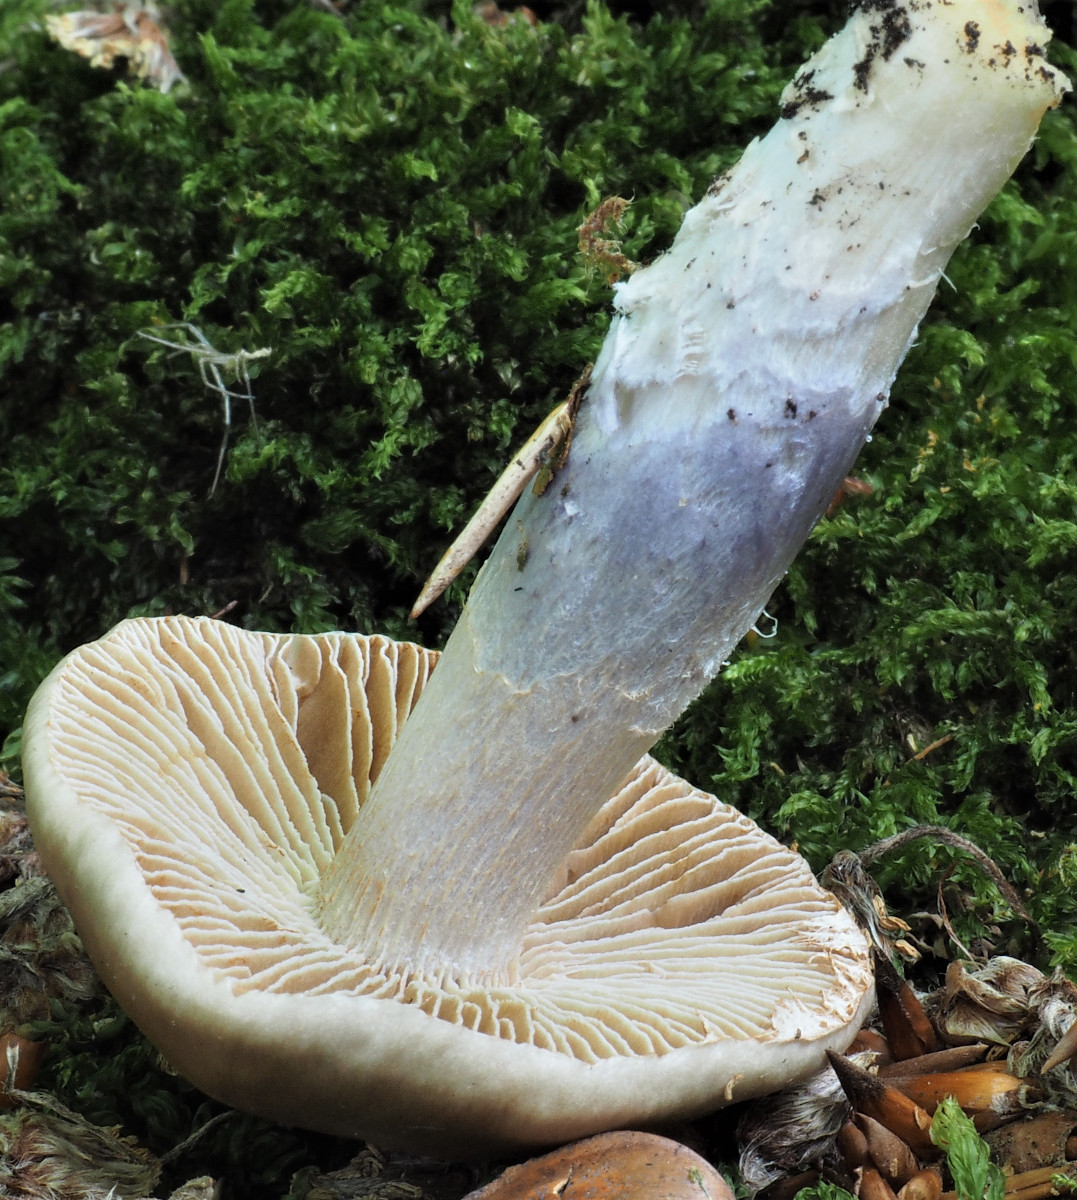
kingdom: Fungi
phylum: Basidiomycota
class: Agaricomycetes
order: Agaricales
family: Cortinariaceae
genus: Cortinarius
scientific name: Cortinarius elatior
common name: høj slørhat
